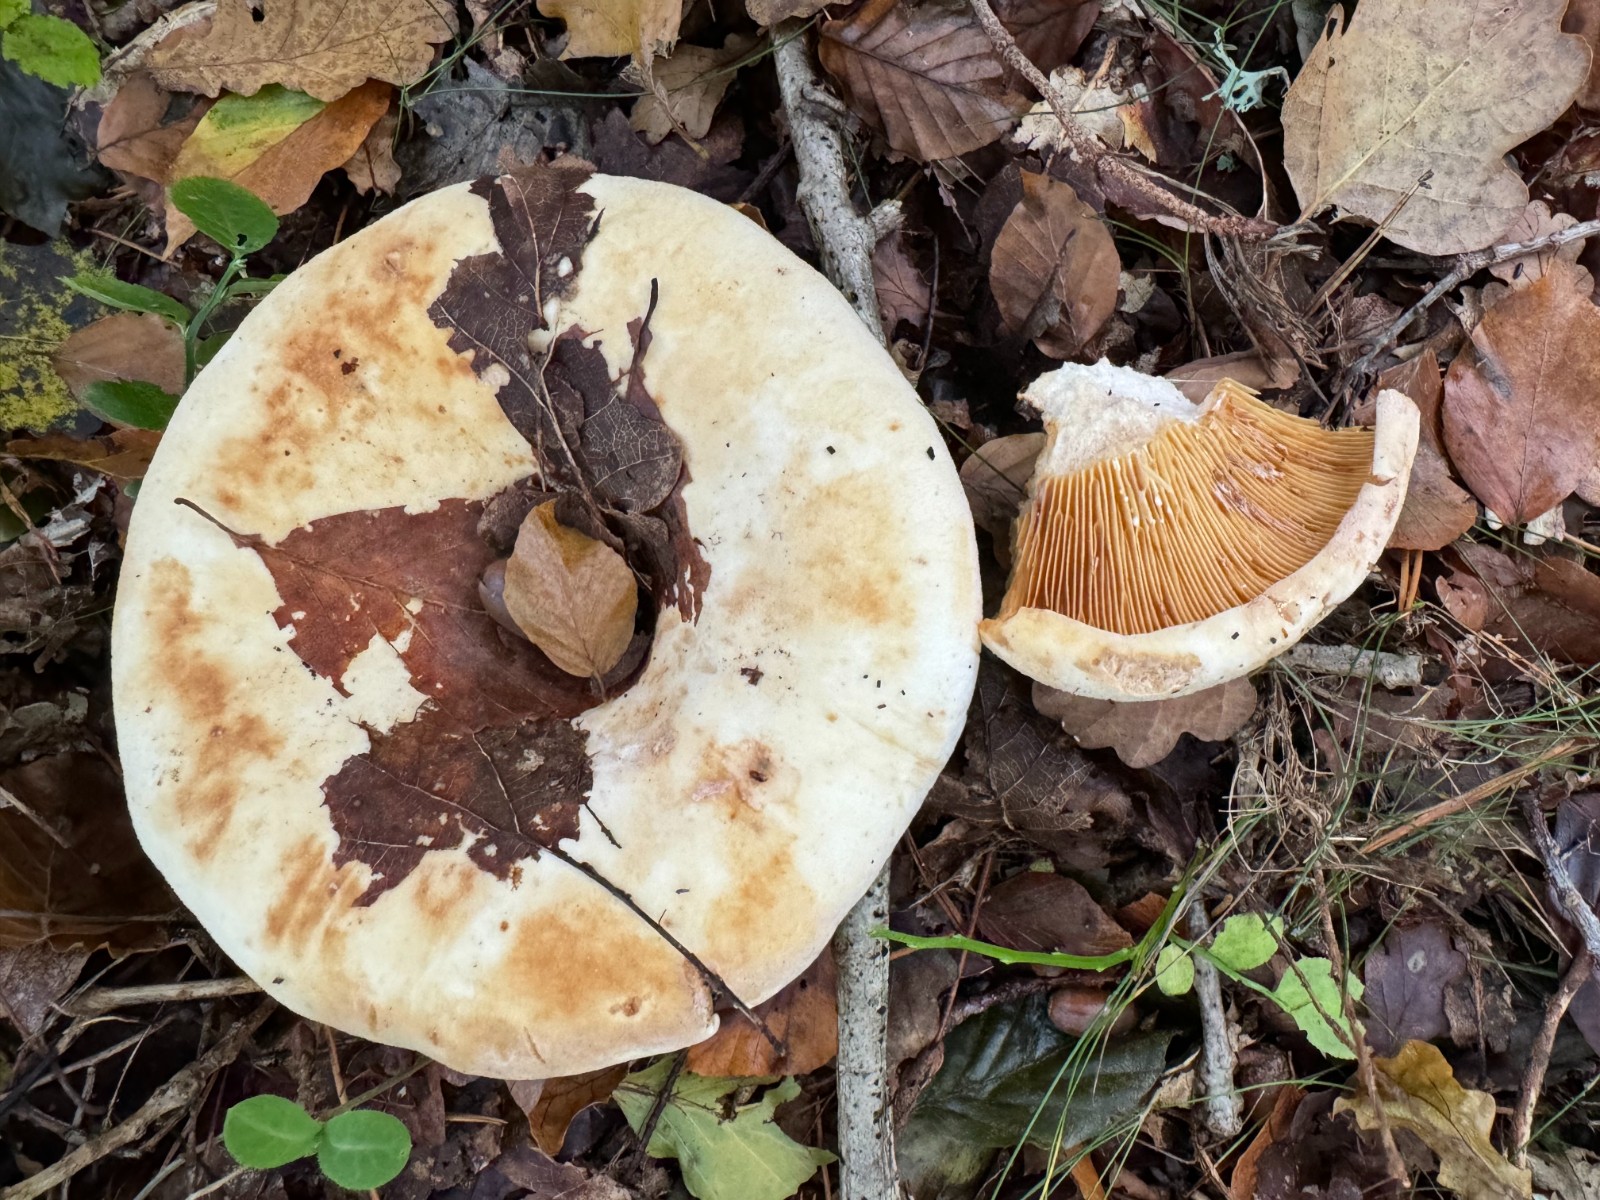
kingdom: Fungi
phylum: Basidiomycota
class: Agaricomycetes
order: Russulales
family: Russulaceae
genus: Lactifluus
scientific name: Lactifluus
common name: mælkehat
